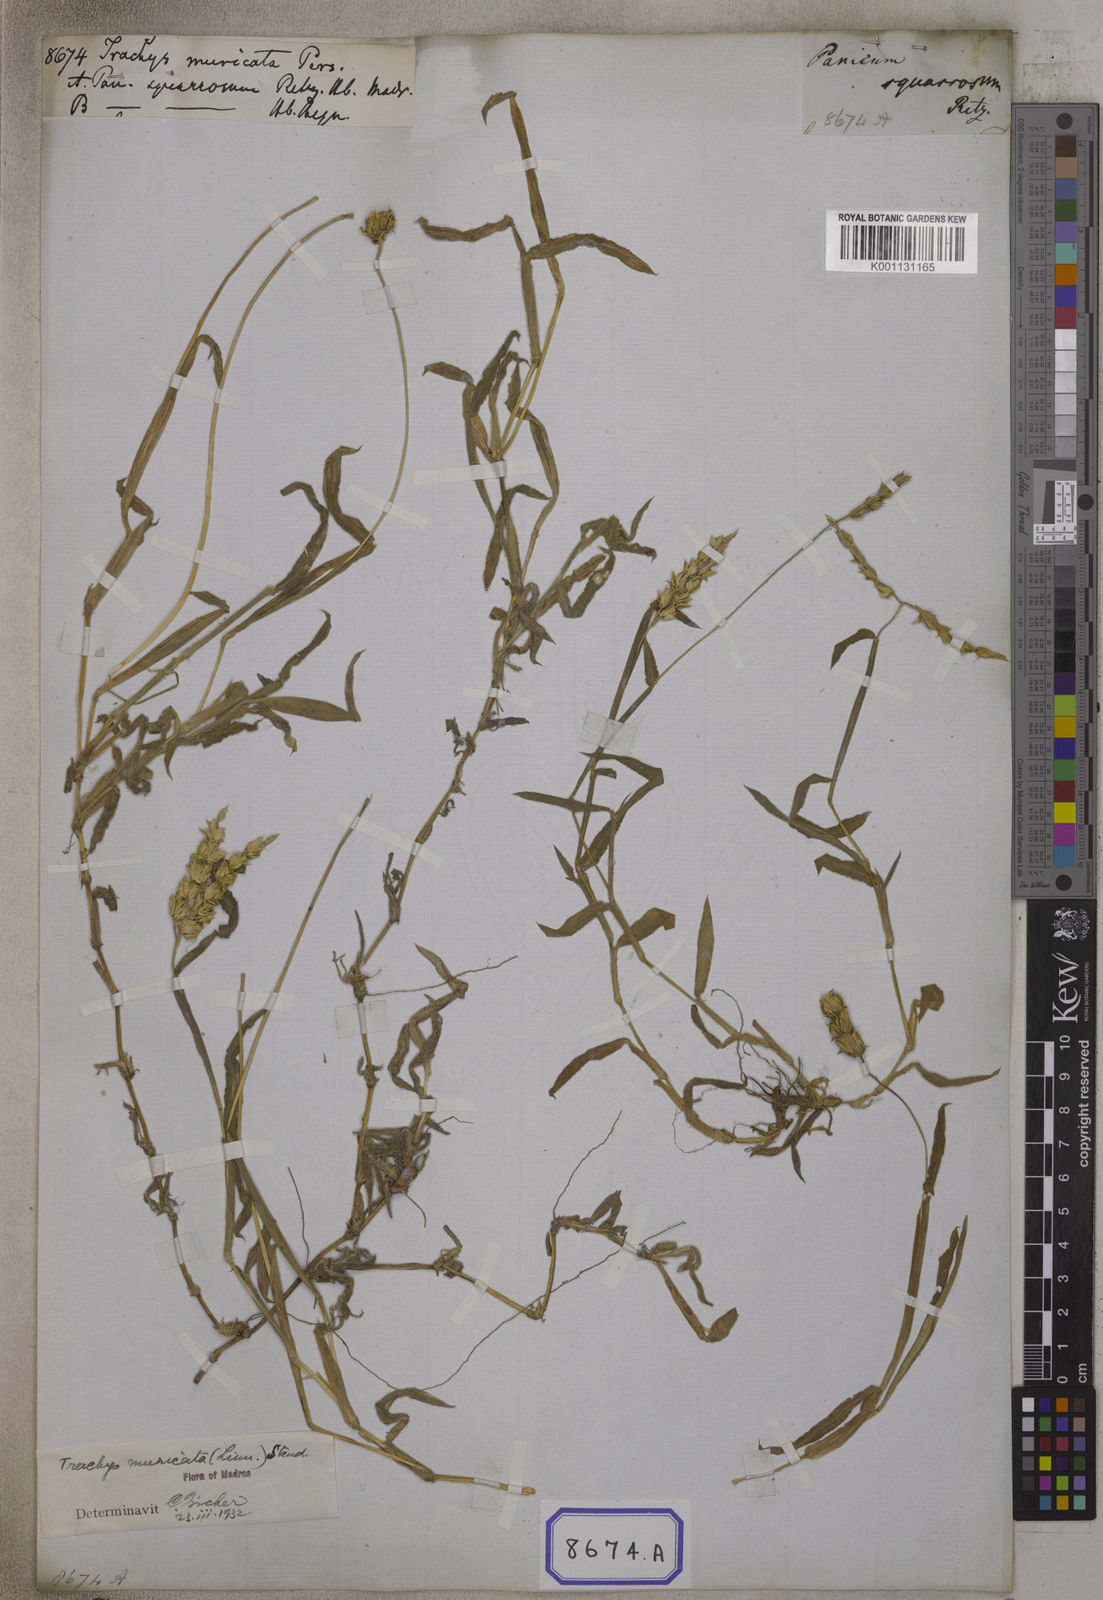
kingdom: Plantae
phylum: Tracheophyta
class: Liliopsida
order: Poales
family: Poaceae
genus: Trachys
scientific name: Trachys
